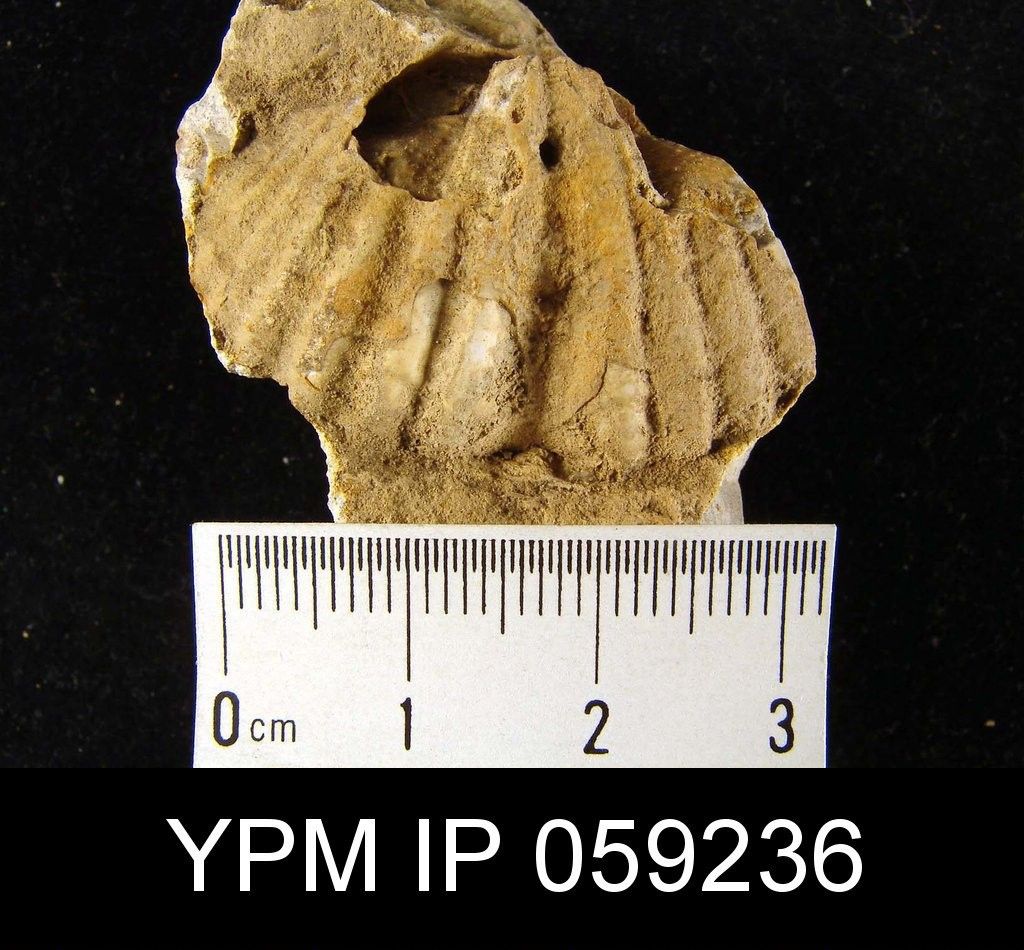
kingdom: Animalia
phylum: Brachiopoda
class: Rhynchonellata
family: Hysterolitidae
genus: Patriaspirifer
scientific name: Patriaspirifer Spirifer murchisoni
